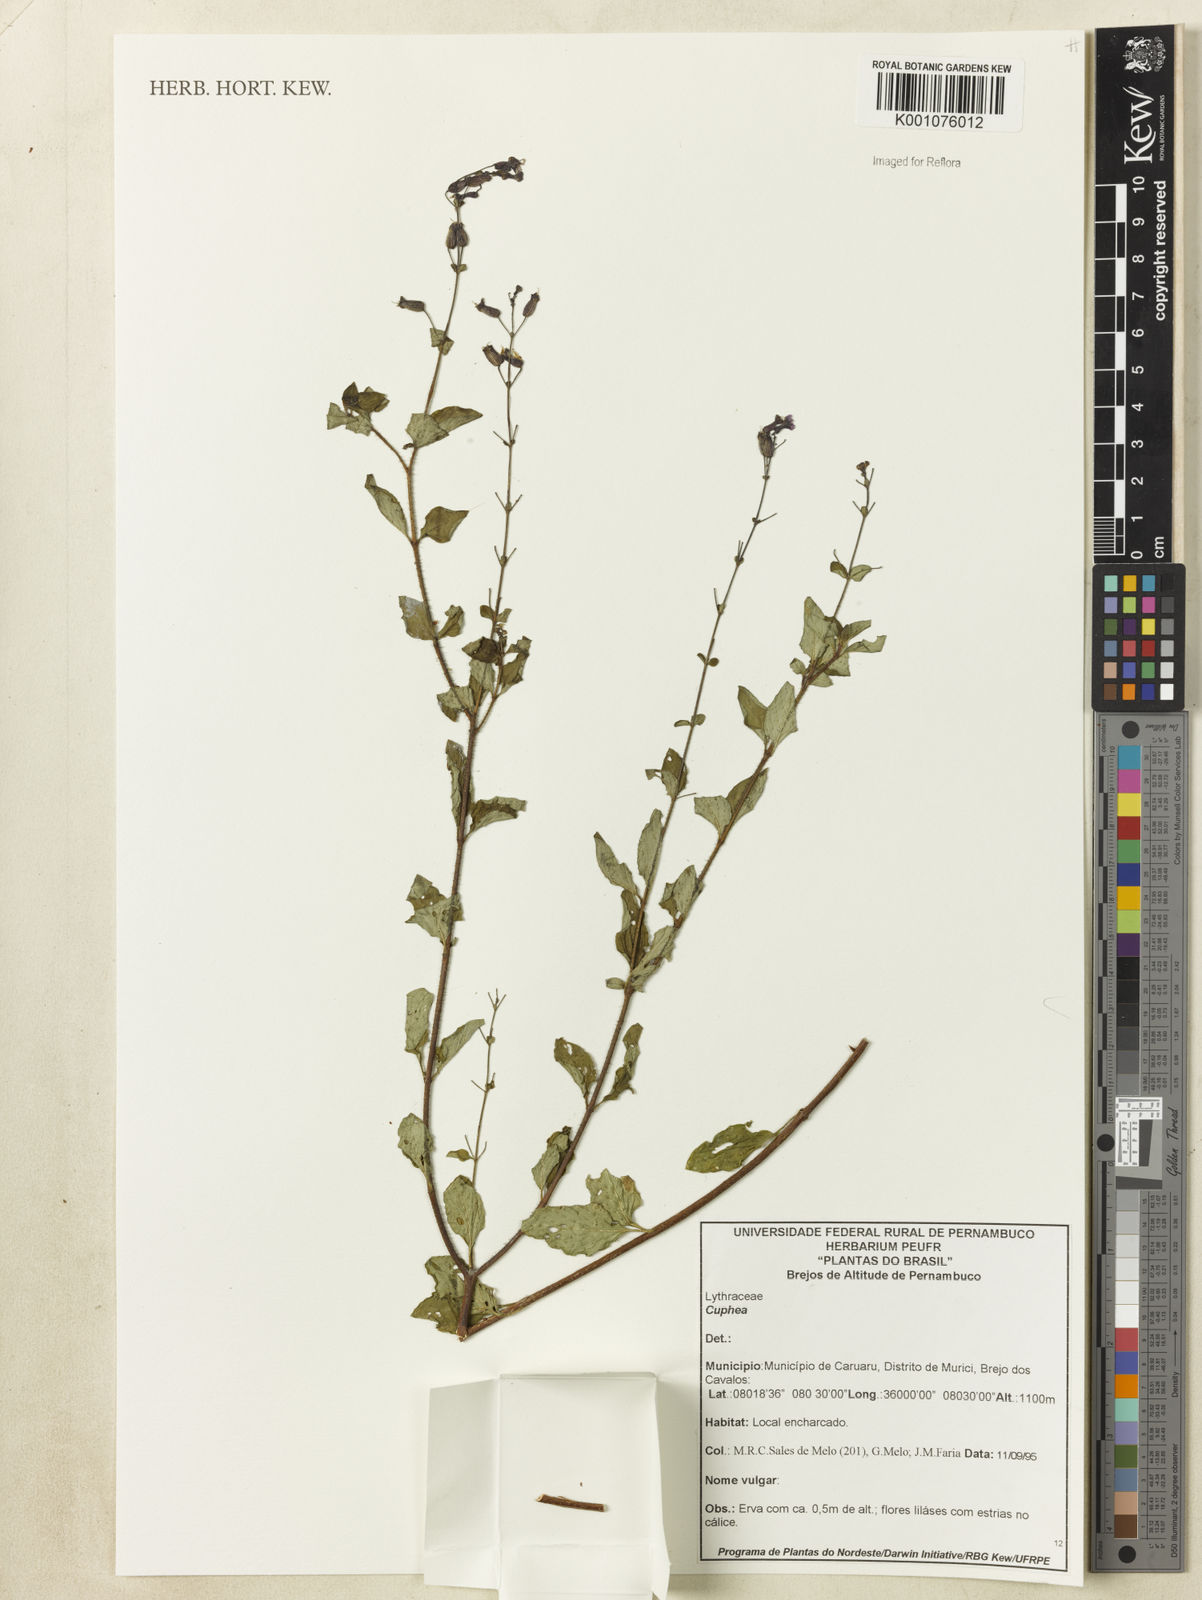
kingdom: Plantae
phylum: Tracheophyta
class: Magnoliopsida
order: Myrtales
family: Lythraceae
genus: Cuphea
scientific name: Cuphea
